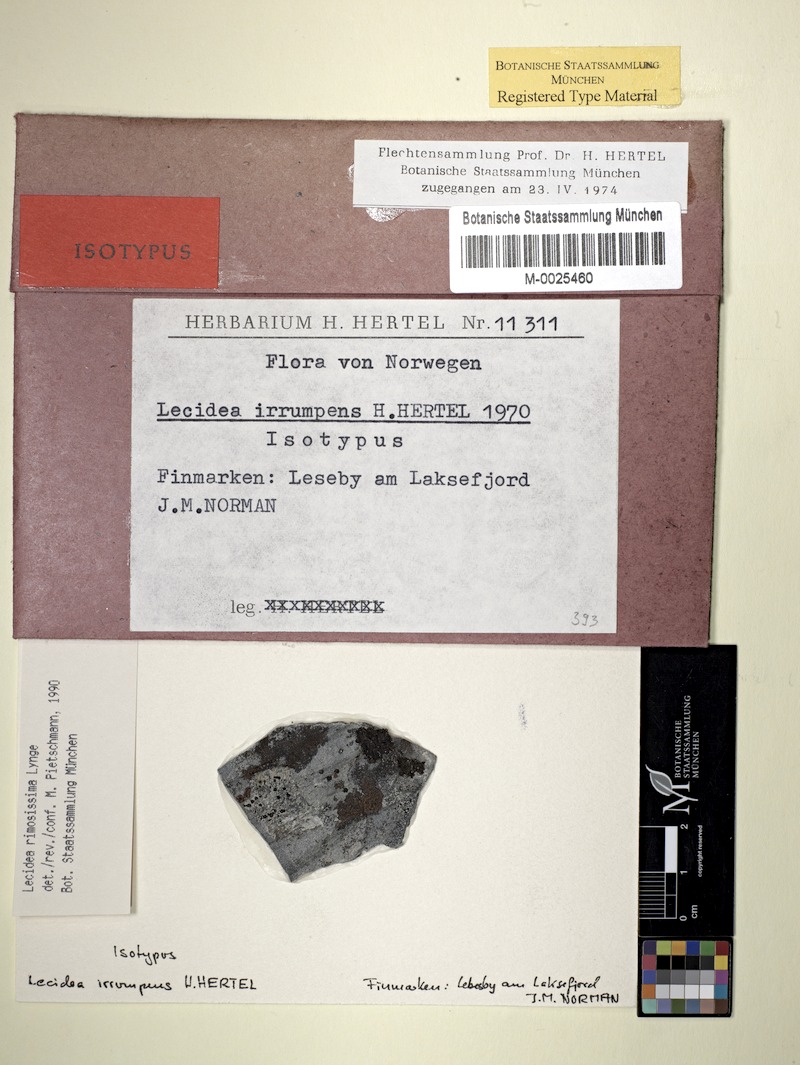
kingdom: Fungi
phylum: Ascomycota
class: Lecanoromycetes
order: Lecideales
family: Lecideaceae
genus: Lecidea
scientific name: Lecidea irrumpens
